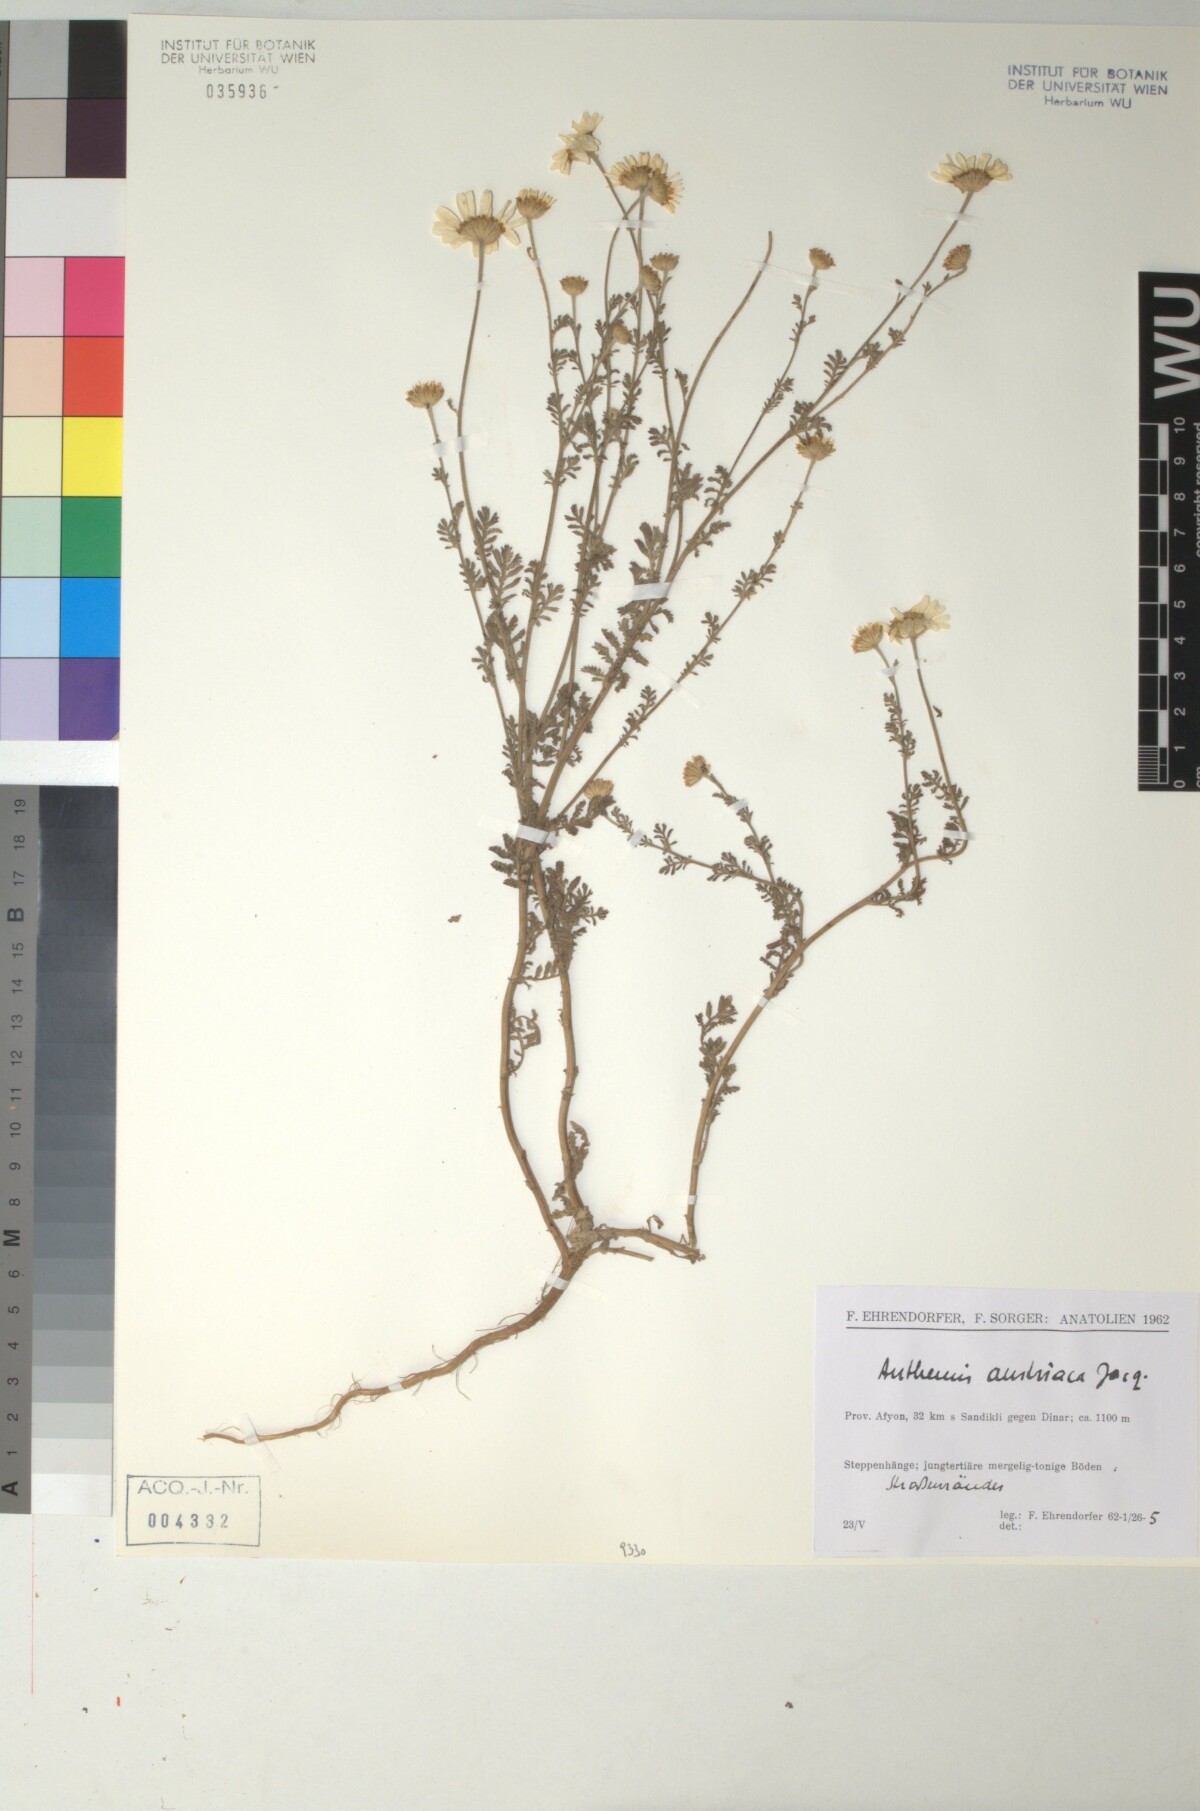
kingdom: Plantae
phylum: Tracheophyta
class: Magnoliopsida
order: Asterales
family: Asteraceae
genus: Cota
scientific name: Cota austriaca
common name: Austrian chamomile
